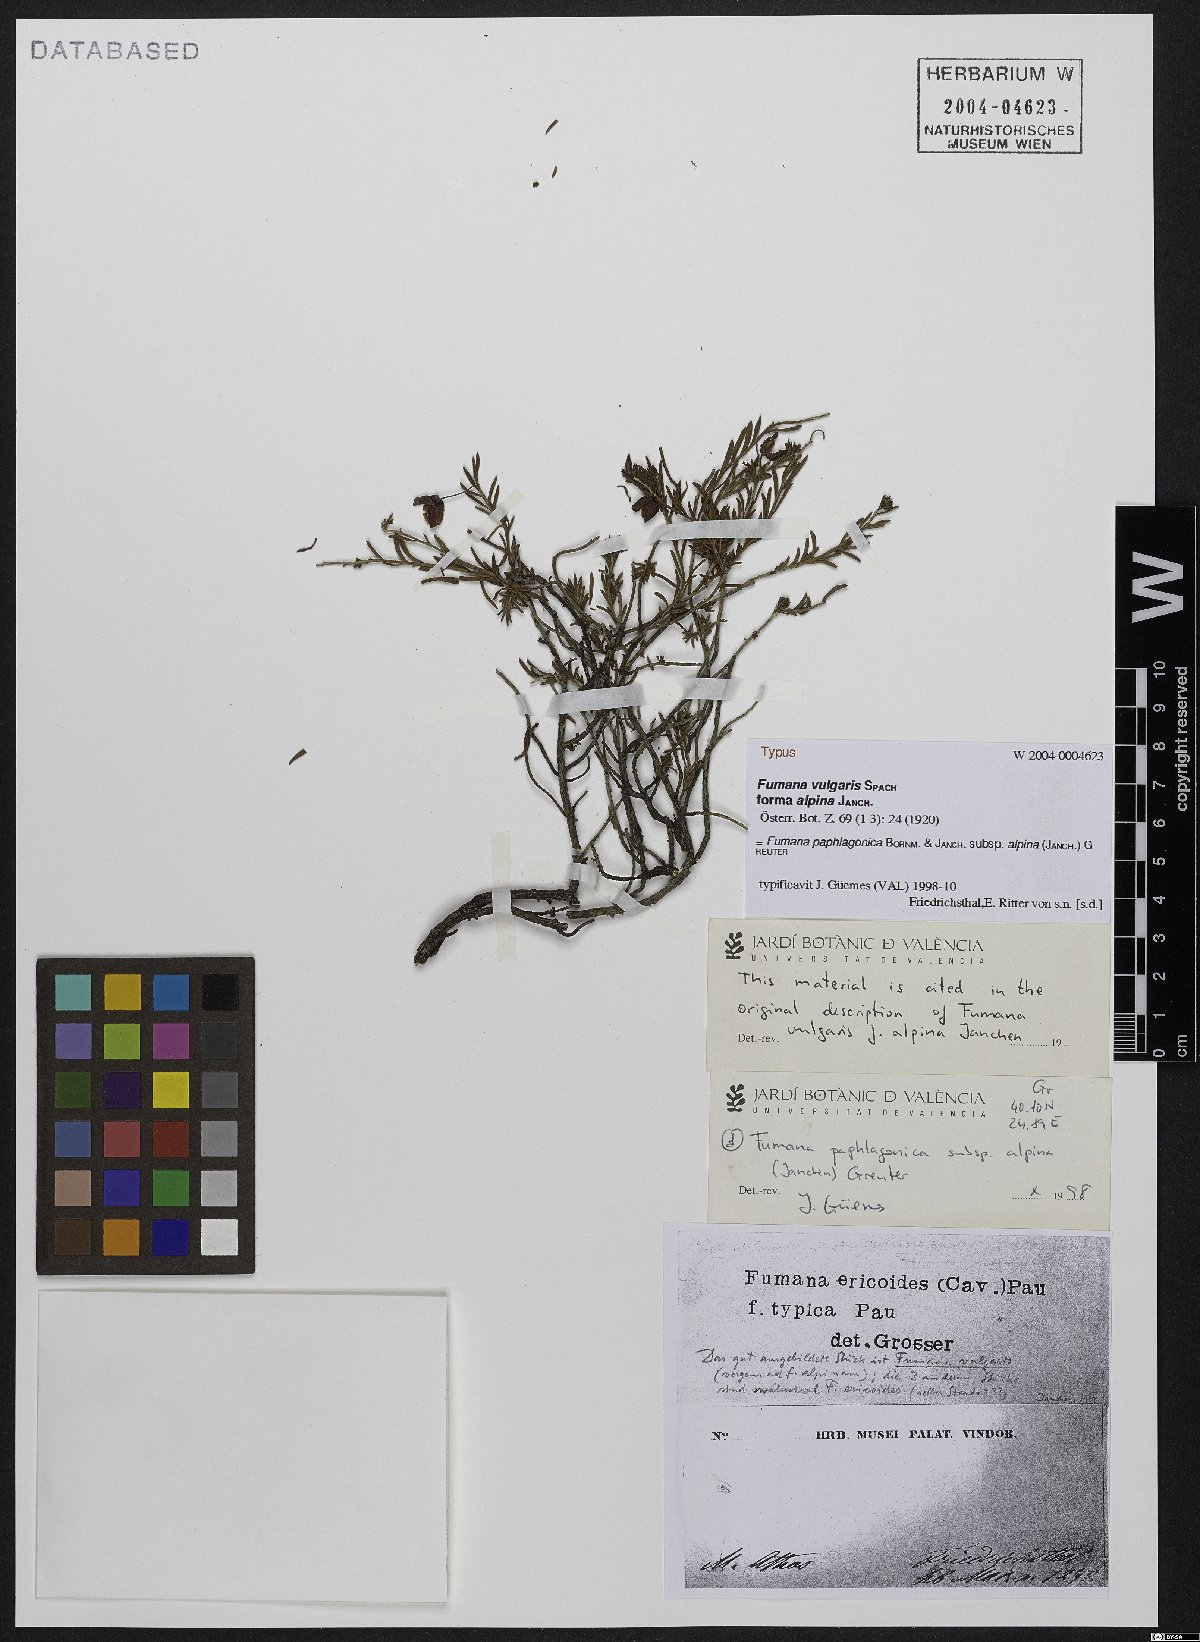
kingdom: Plantae
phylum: Tracheophyta
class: Magnoliopsida
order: Malvales
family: Cistaceae
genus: Fumana
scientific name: Fumana paphlagonica
